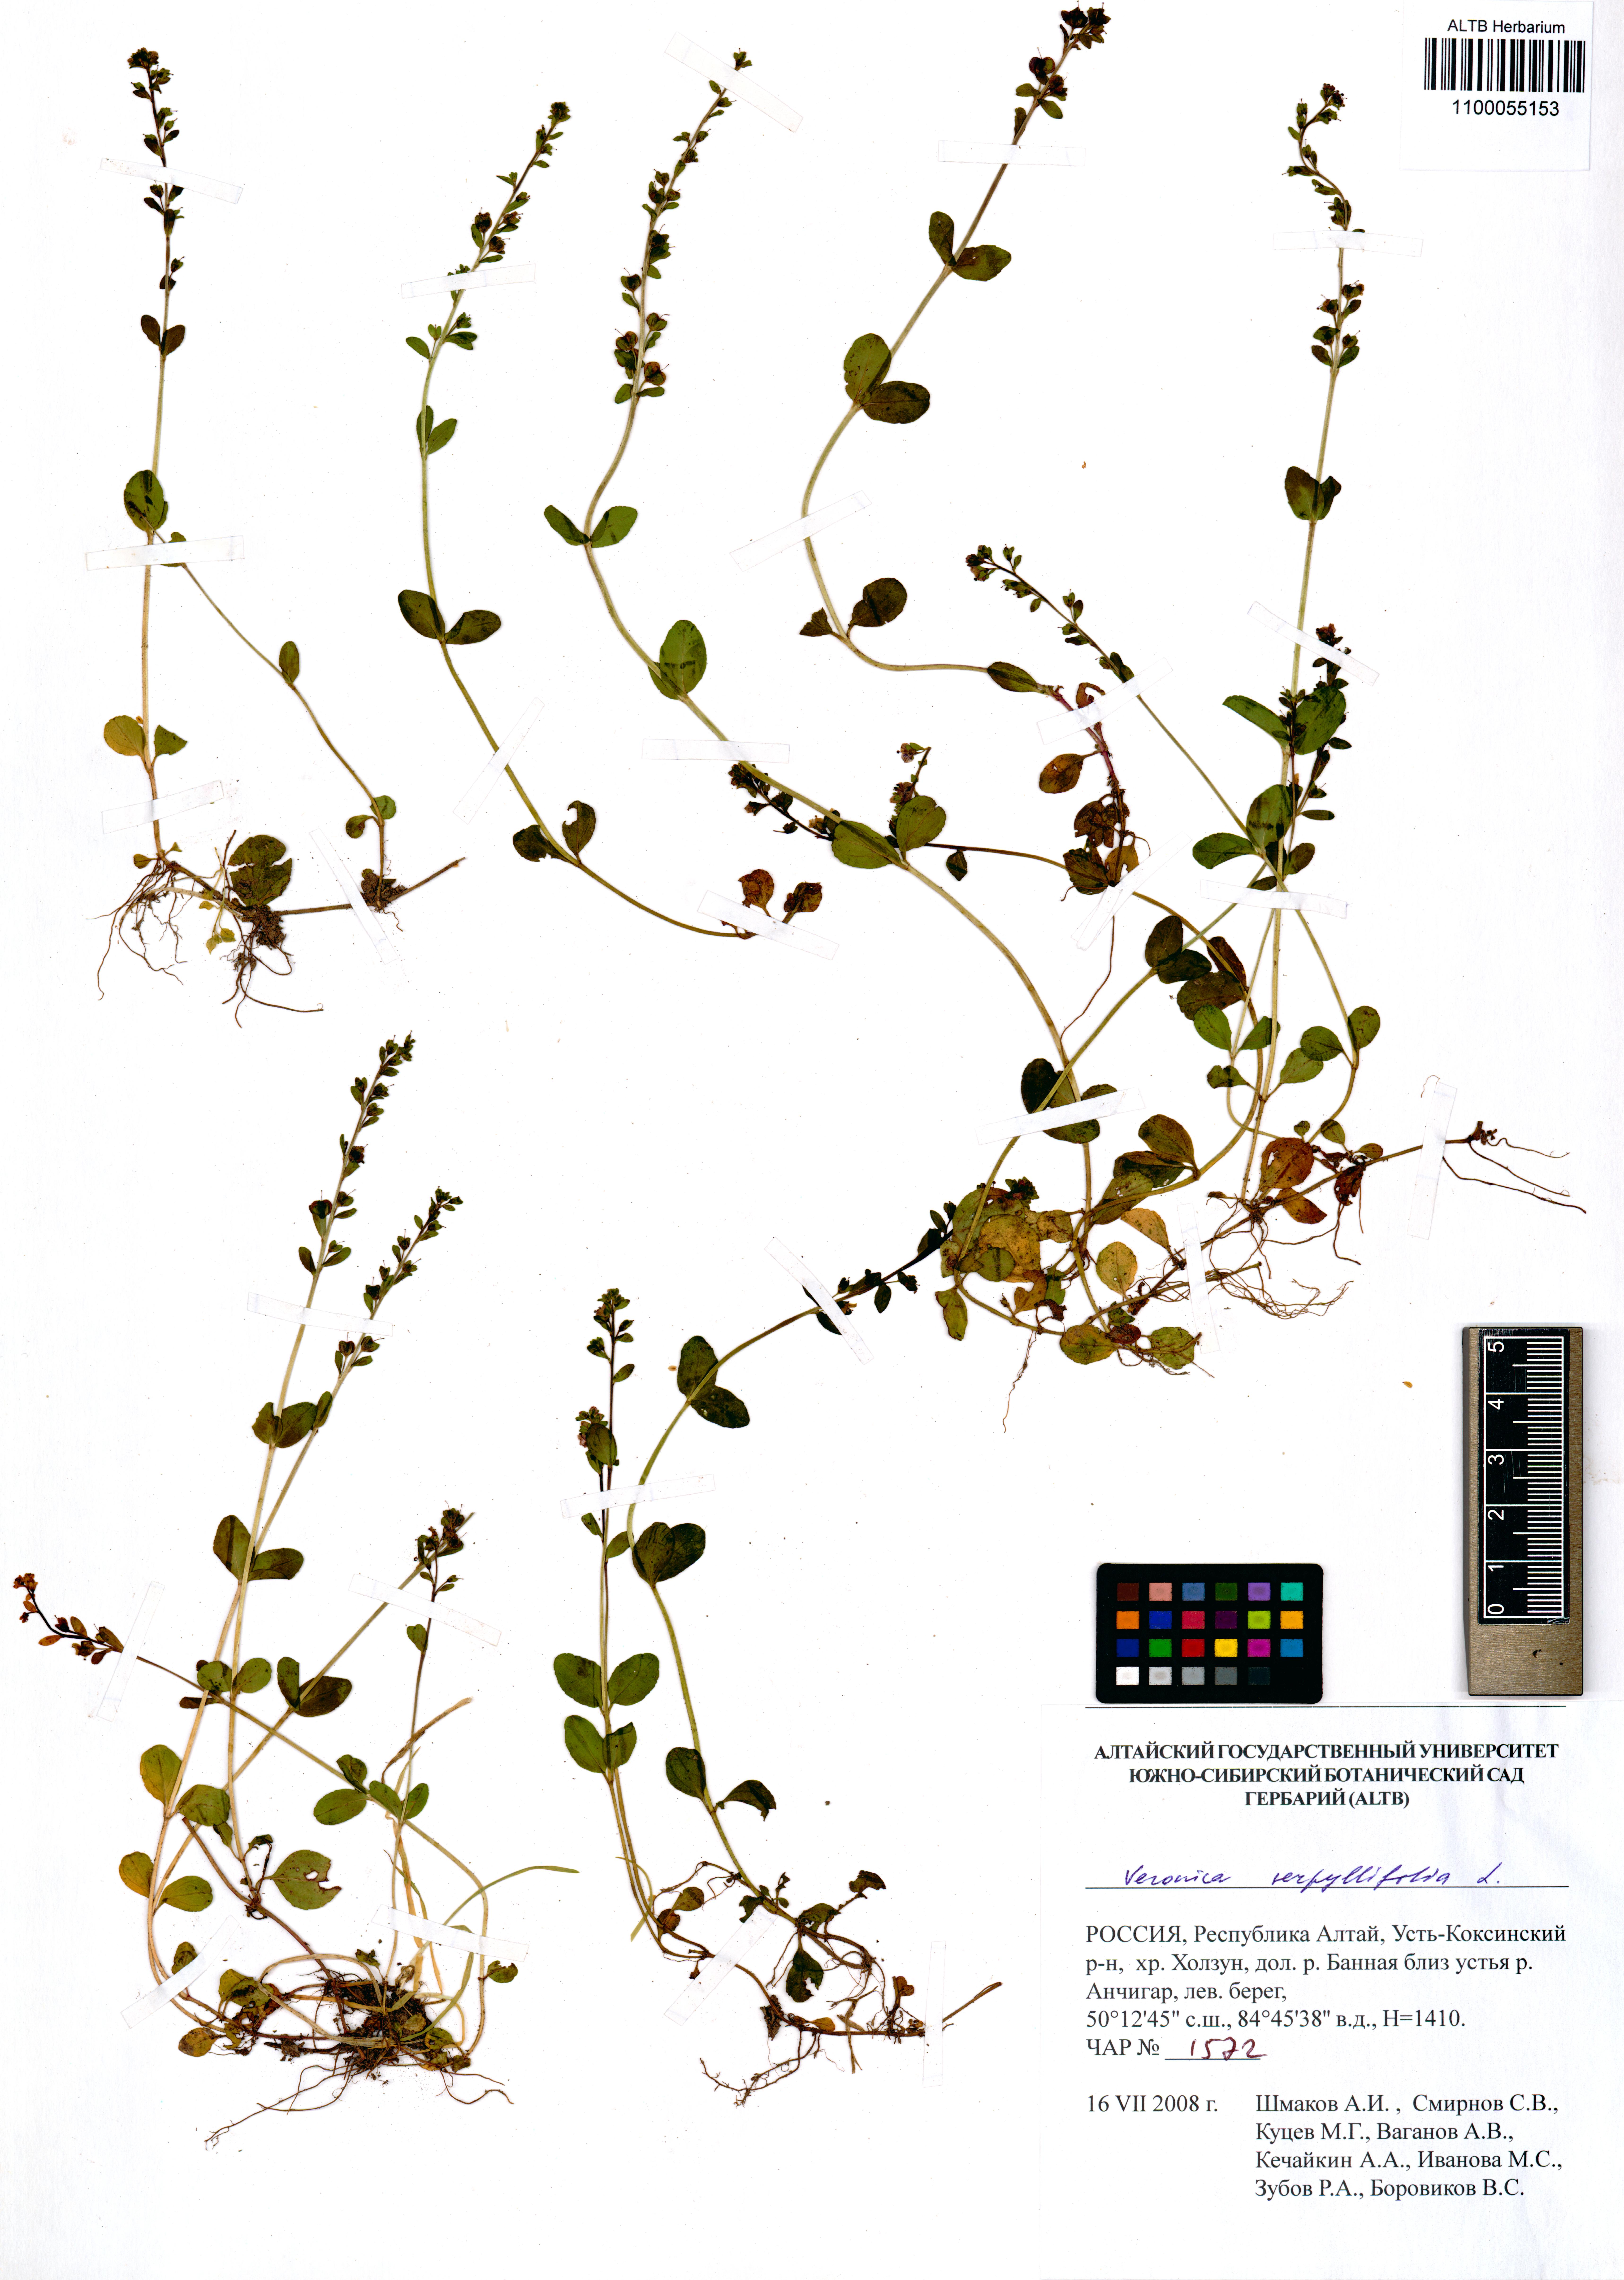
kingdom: Plantae
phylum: Tracheophyta
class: Magnoliopsida
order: Lamiales
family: Plantaginaceae
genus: Veronica
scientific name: Veronica serpyllifolia
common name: Thyme-leaved speedwell
